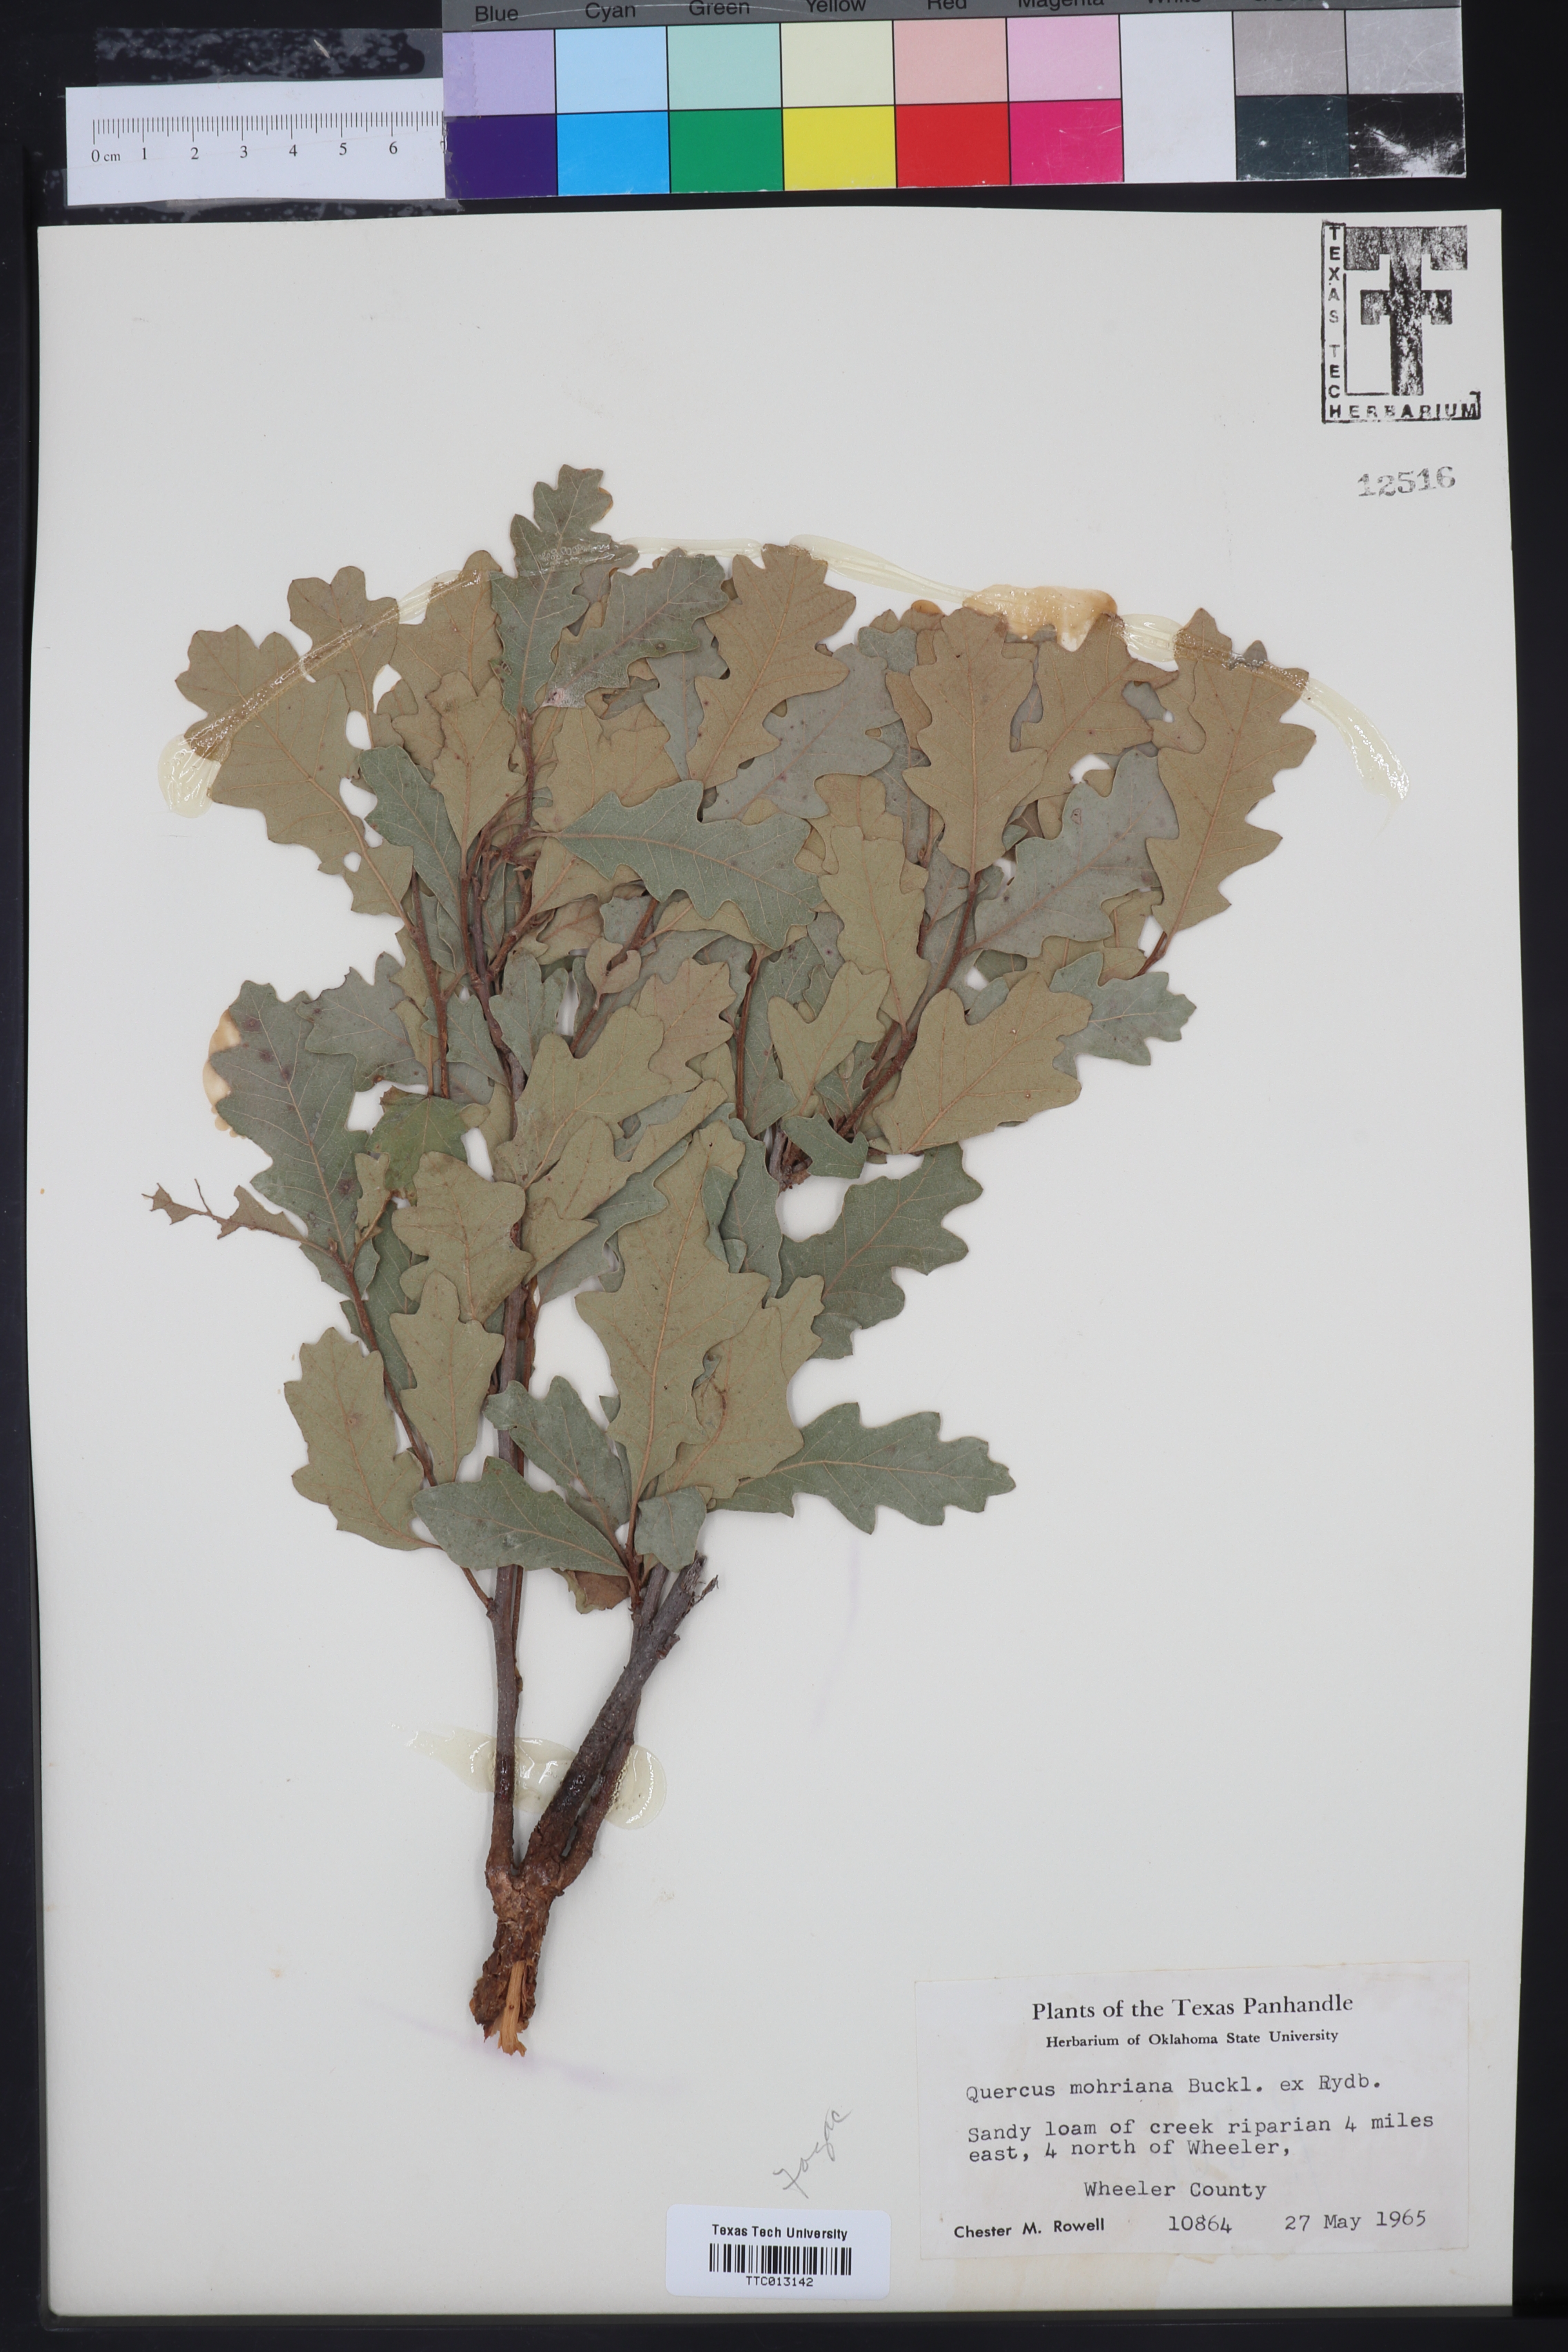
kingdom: Plantae
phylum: Tracheophyta
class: Magnoliopsida
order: Fagales
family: Fagaceae
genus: Quercus
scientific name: Quercus mohriana
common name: Mohr oak
